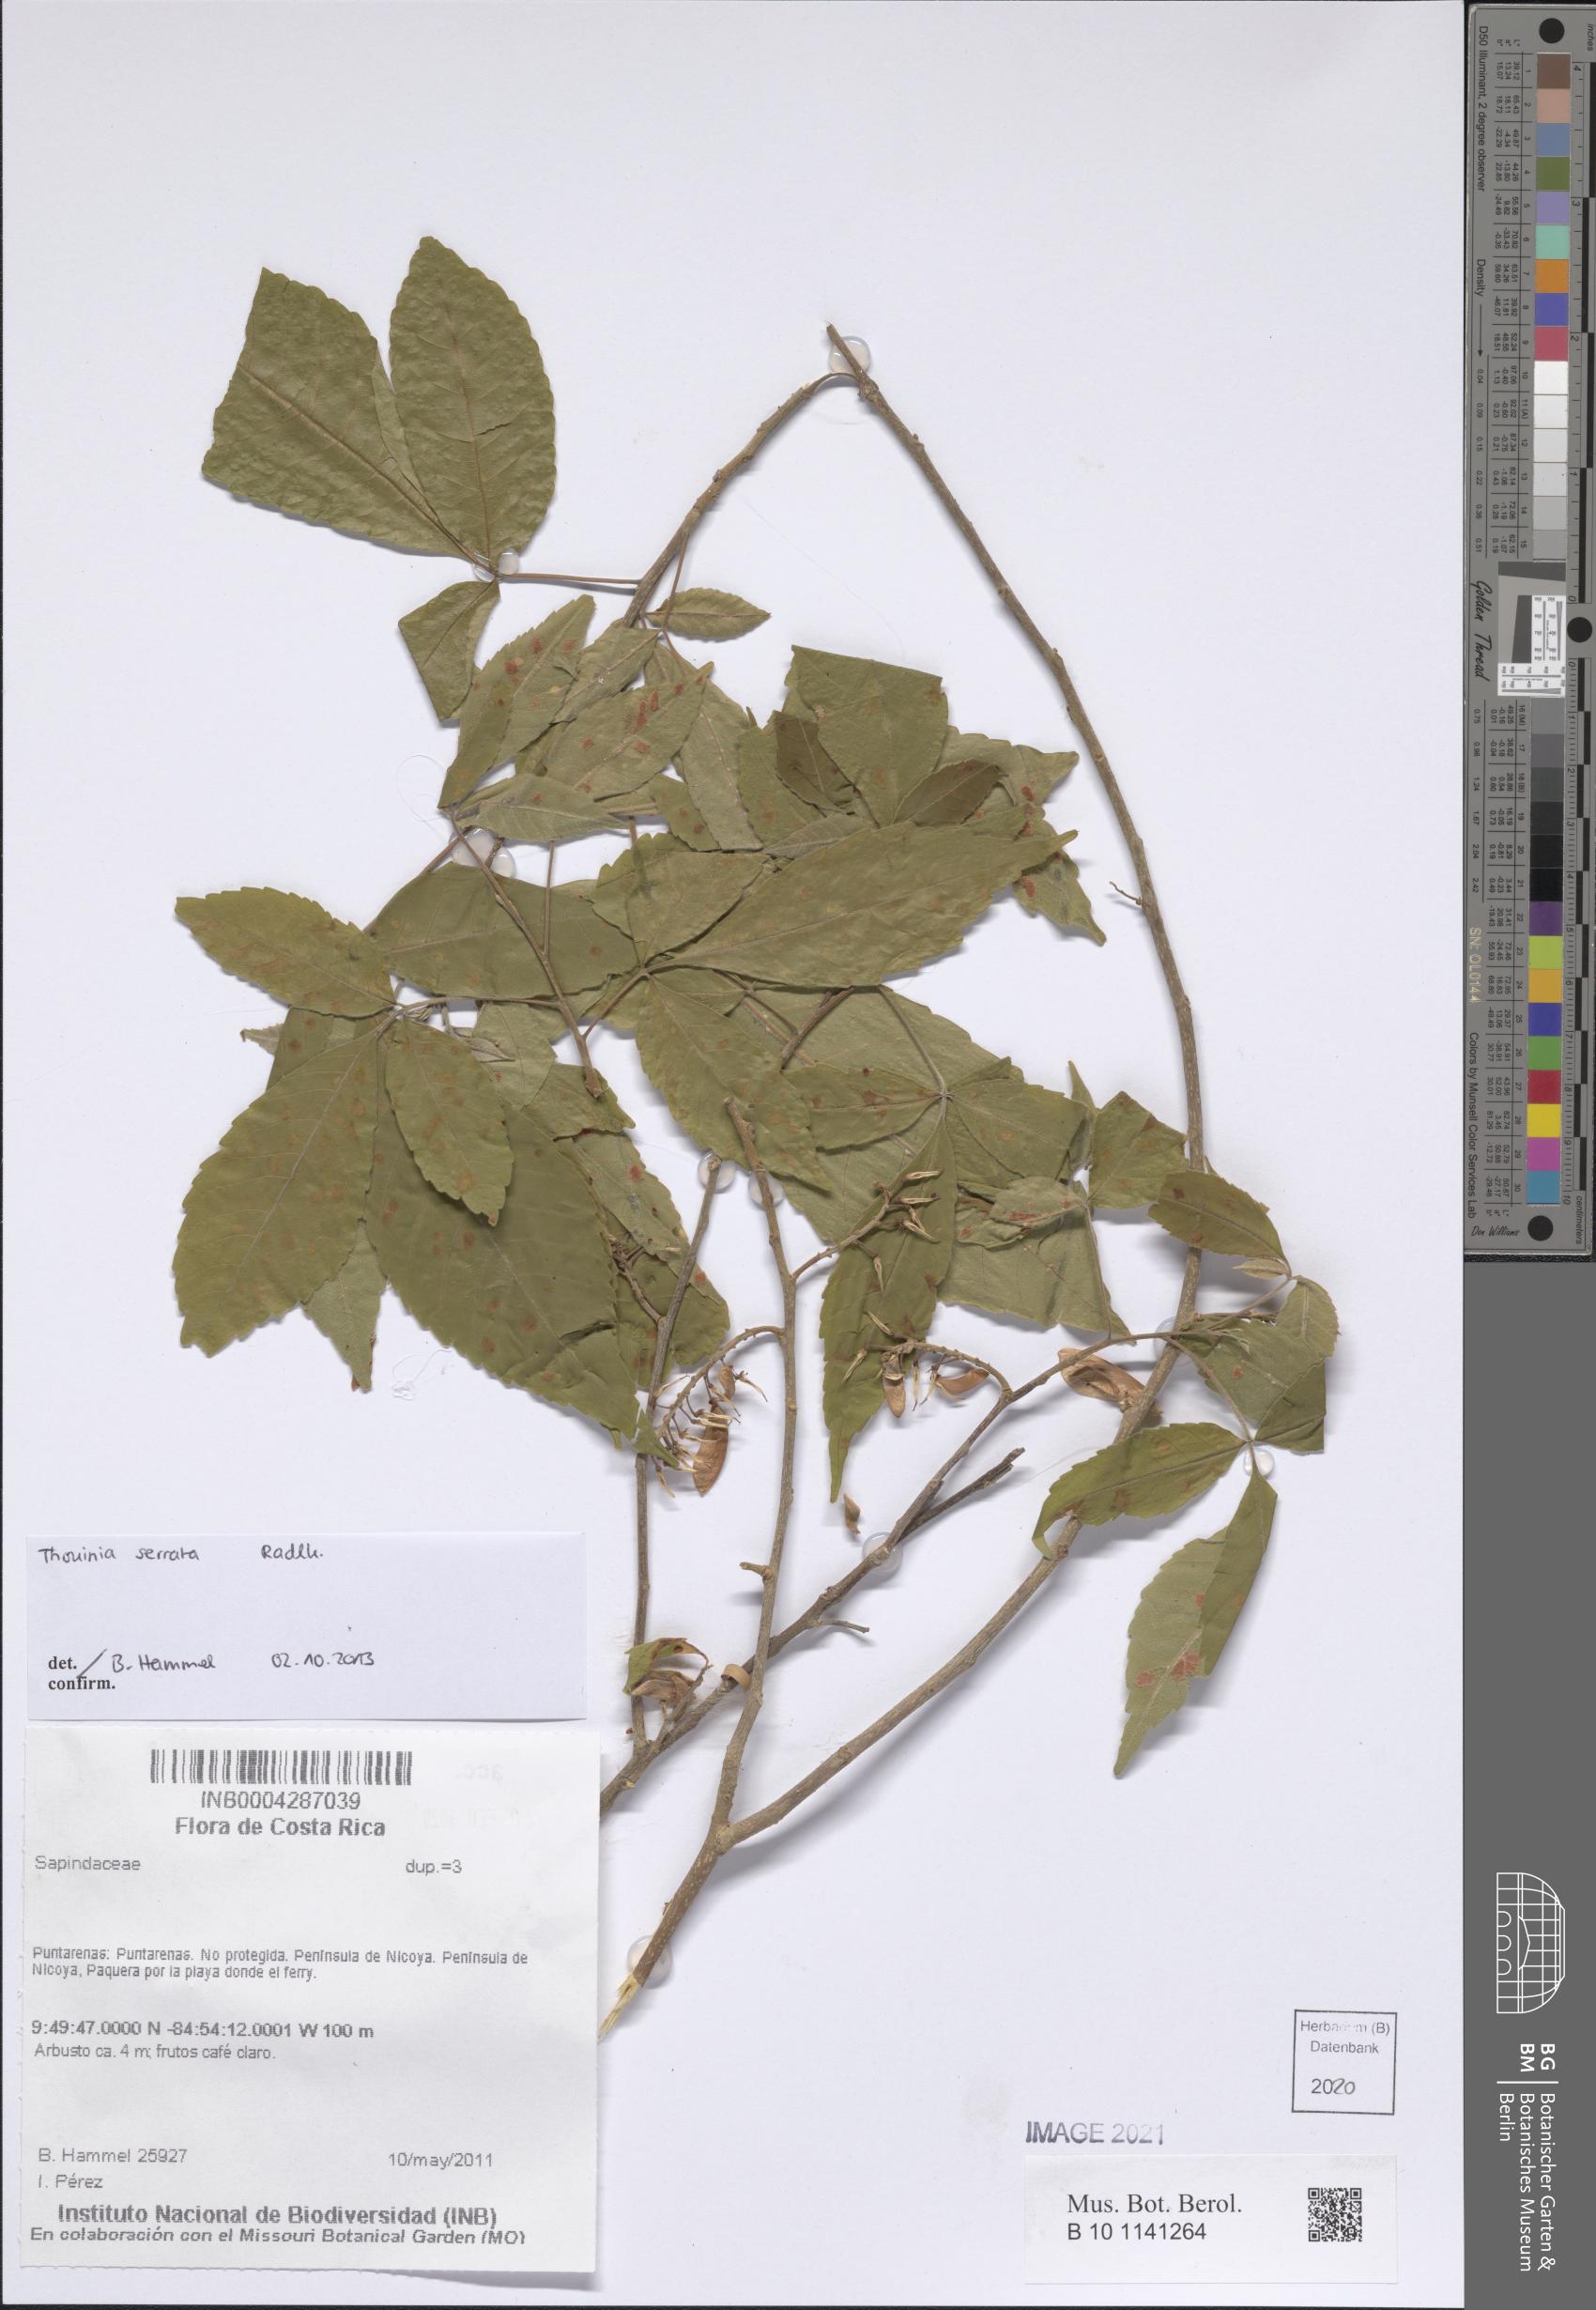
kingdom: Plantae
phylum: Tracheophyta
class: Magnoliopsida
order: Sapindales
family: Sapindaceae
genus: Thouinia
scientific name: Thouinia serrata
